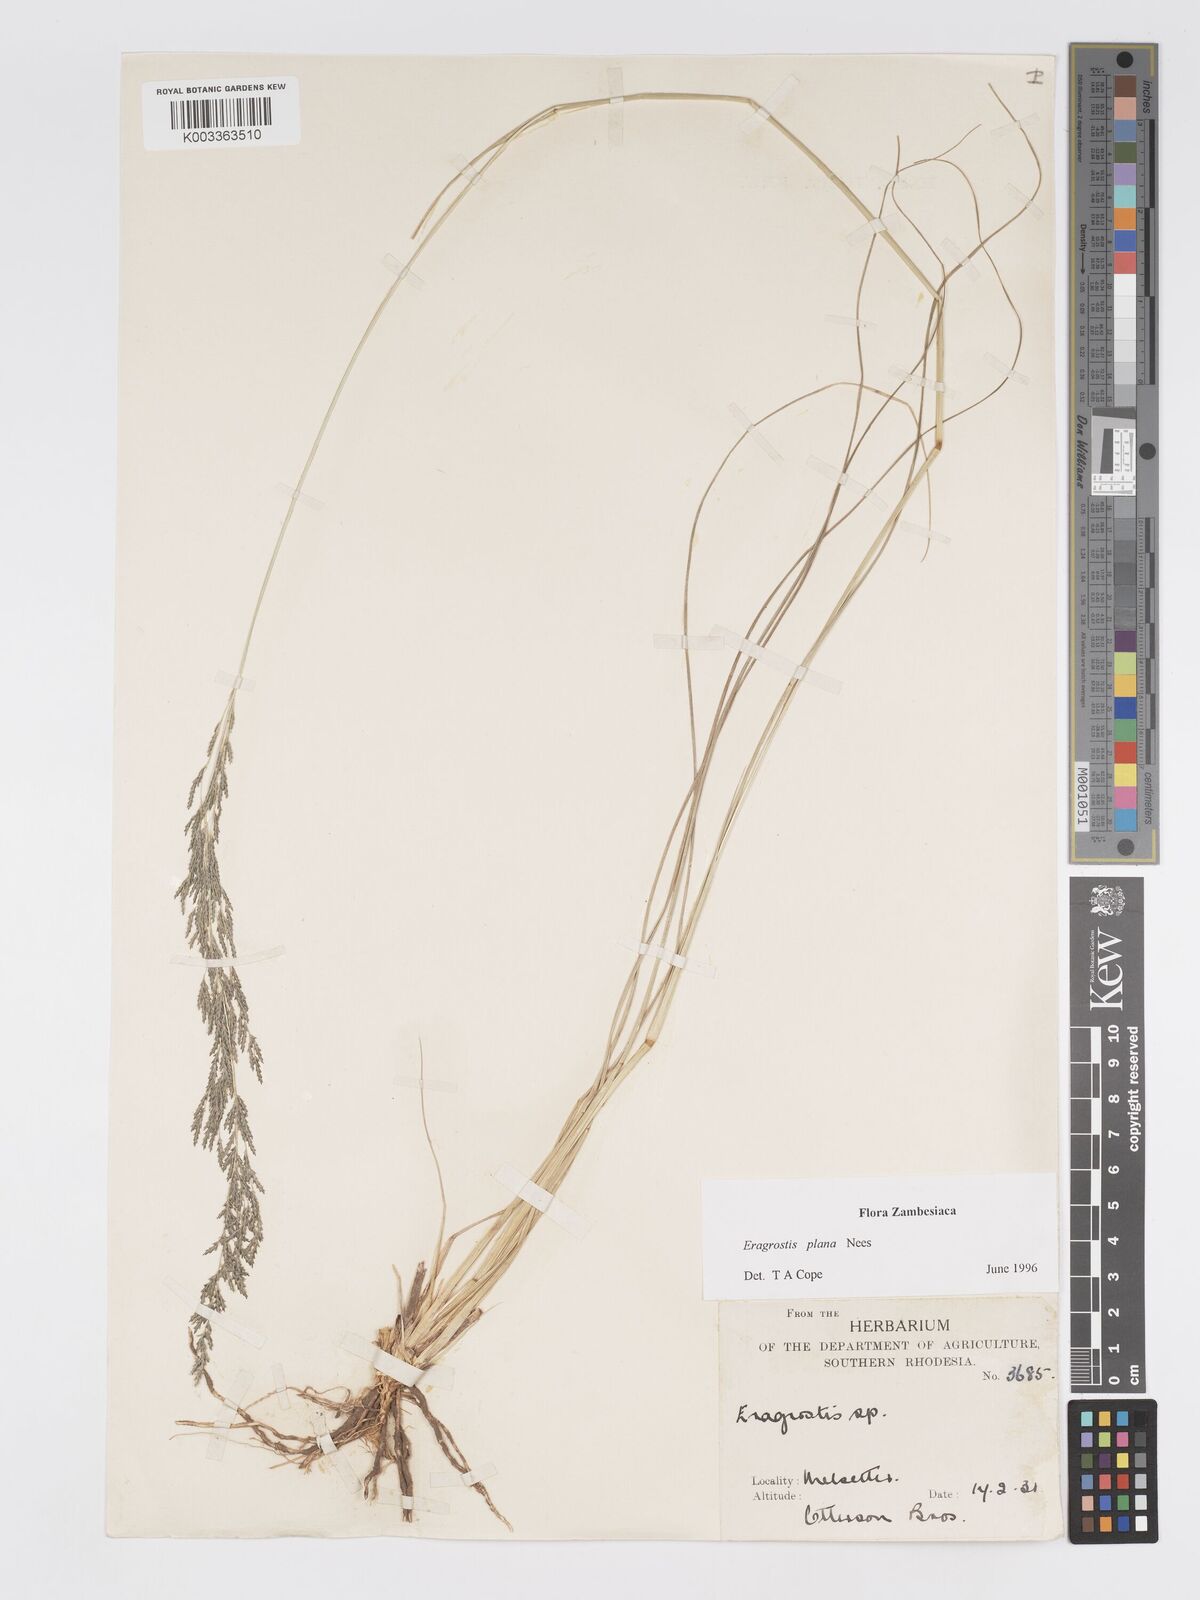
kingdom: Plantae
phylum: Tracheophyta
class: Liliopsida
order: Poales
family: Poaceae
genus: Eragrostis
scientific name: Eragrostis plana
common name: South african lovegrass
